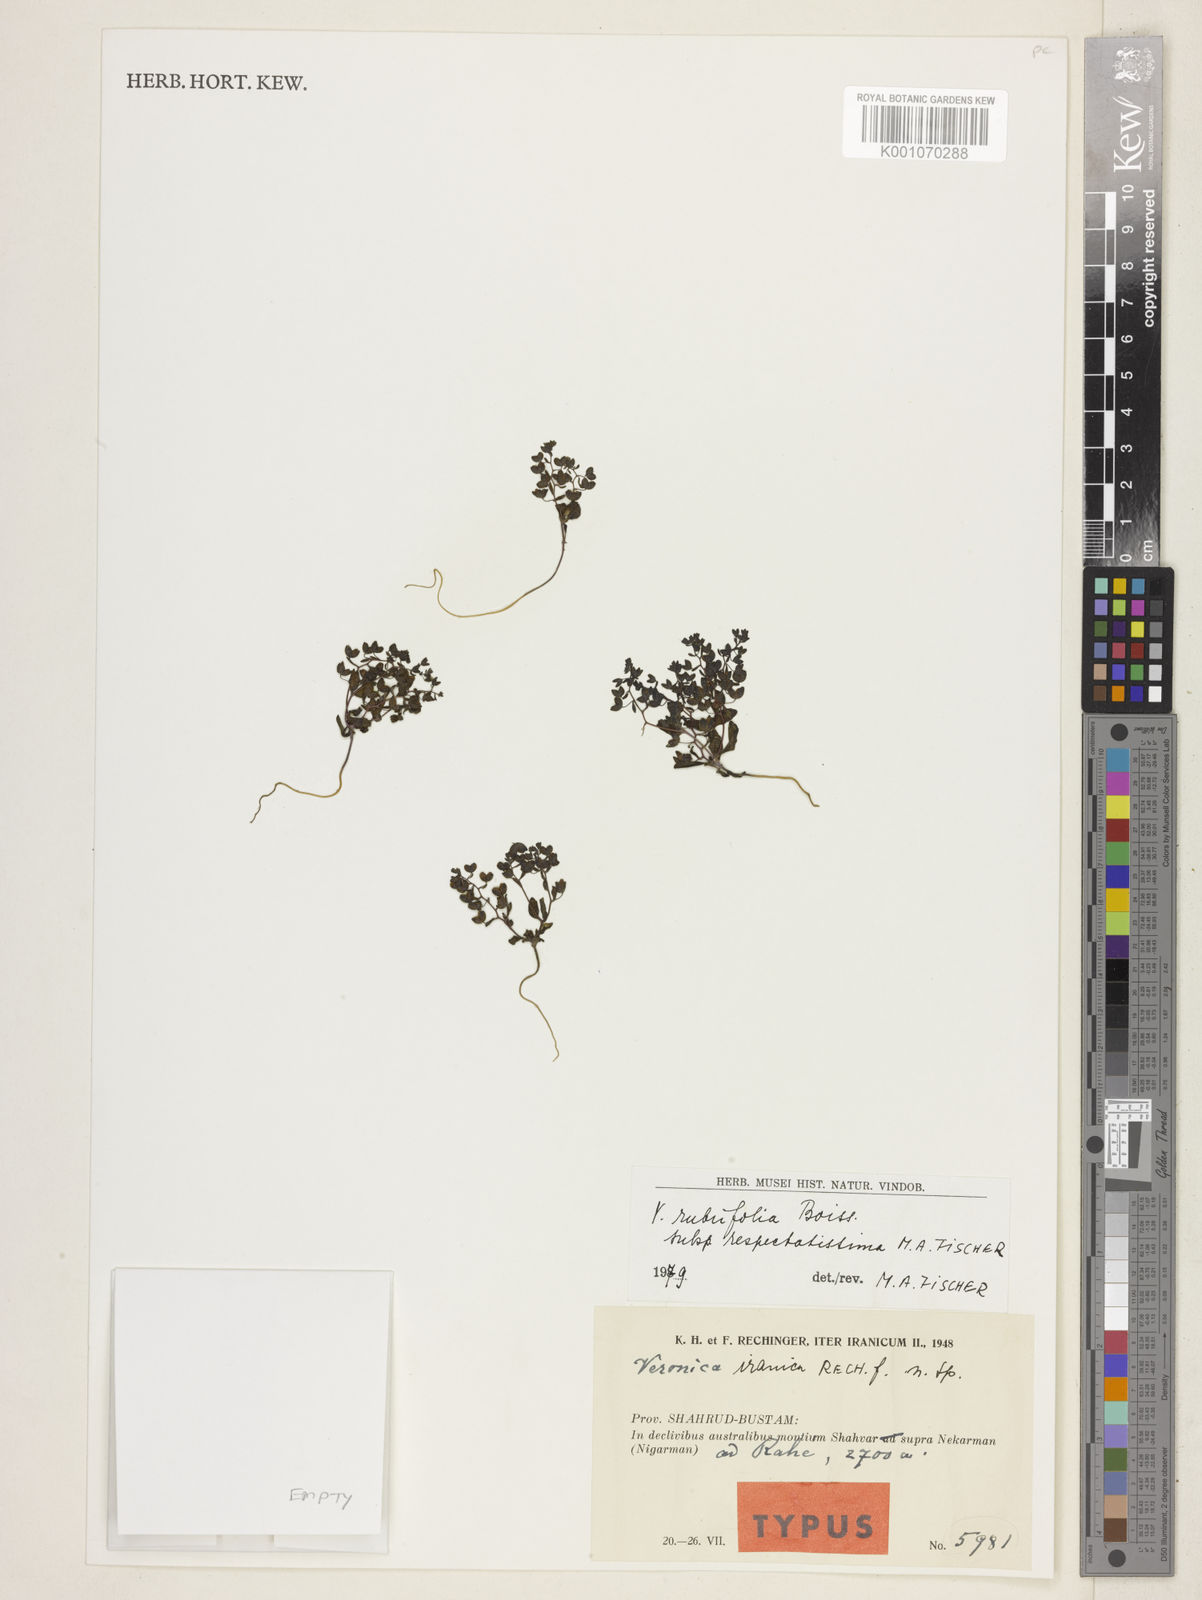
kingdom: Plantae
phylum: Tracheophyta
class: Magnoliopsida
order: Lamiales
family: Plantaginaceae
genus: Veronica
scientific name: Veronica rubrifolia
